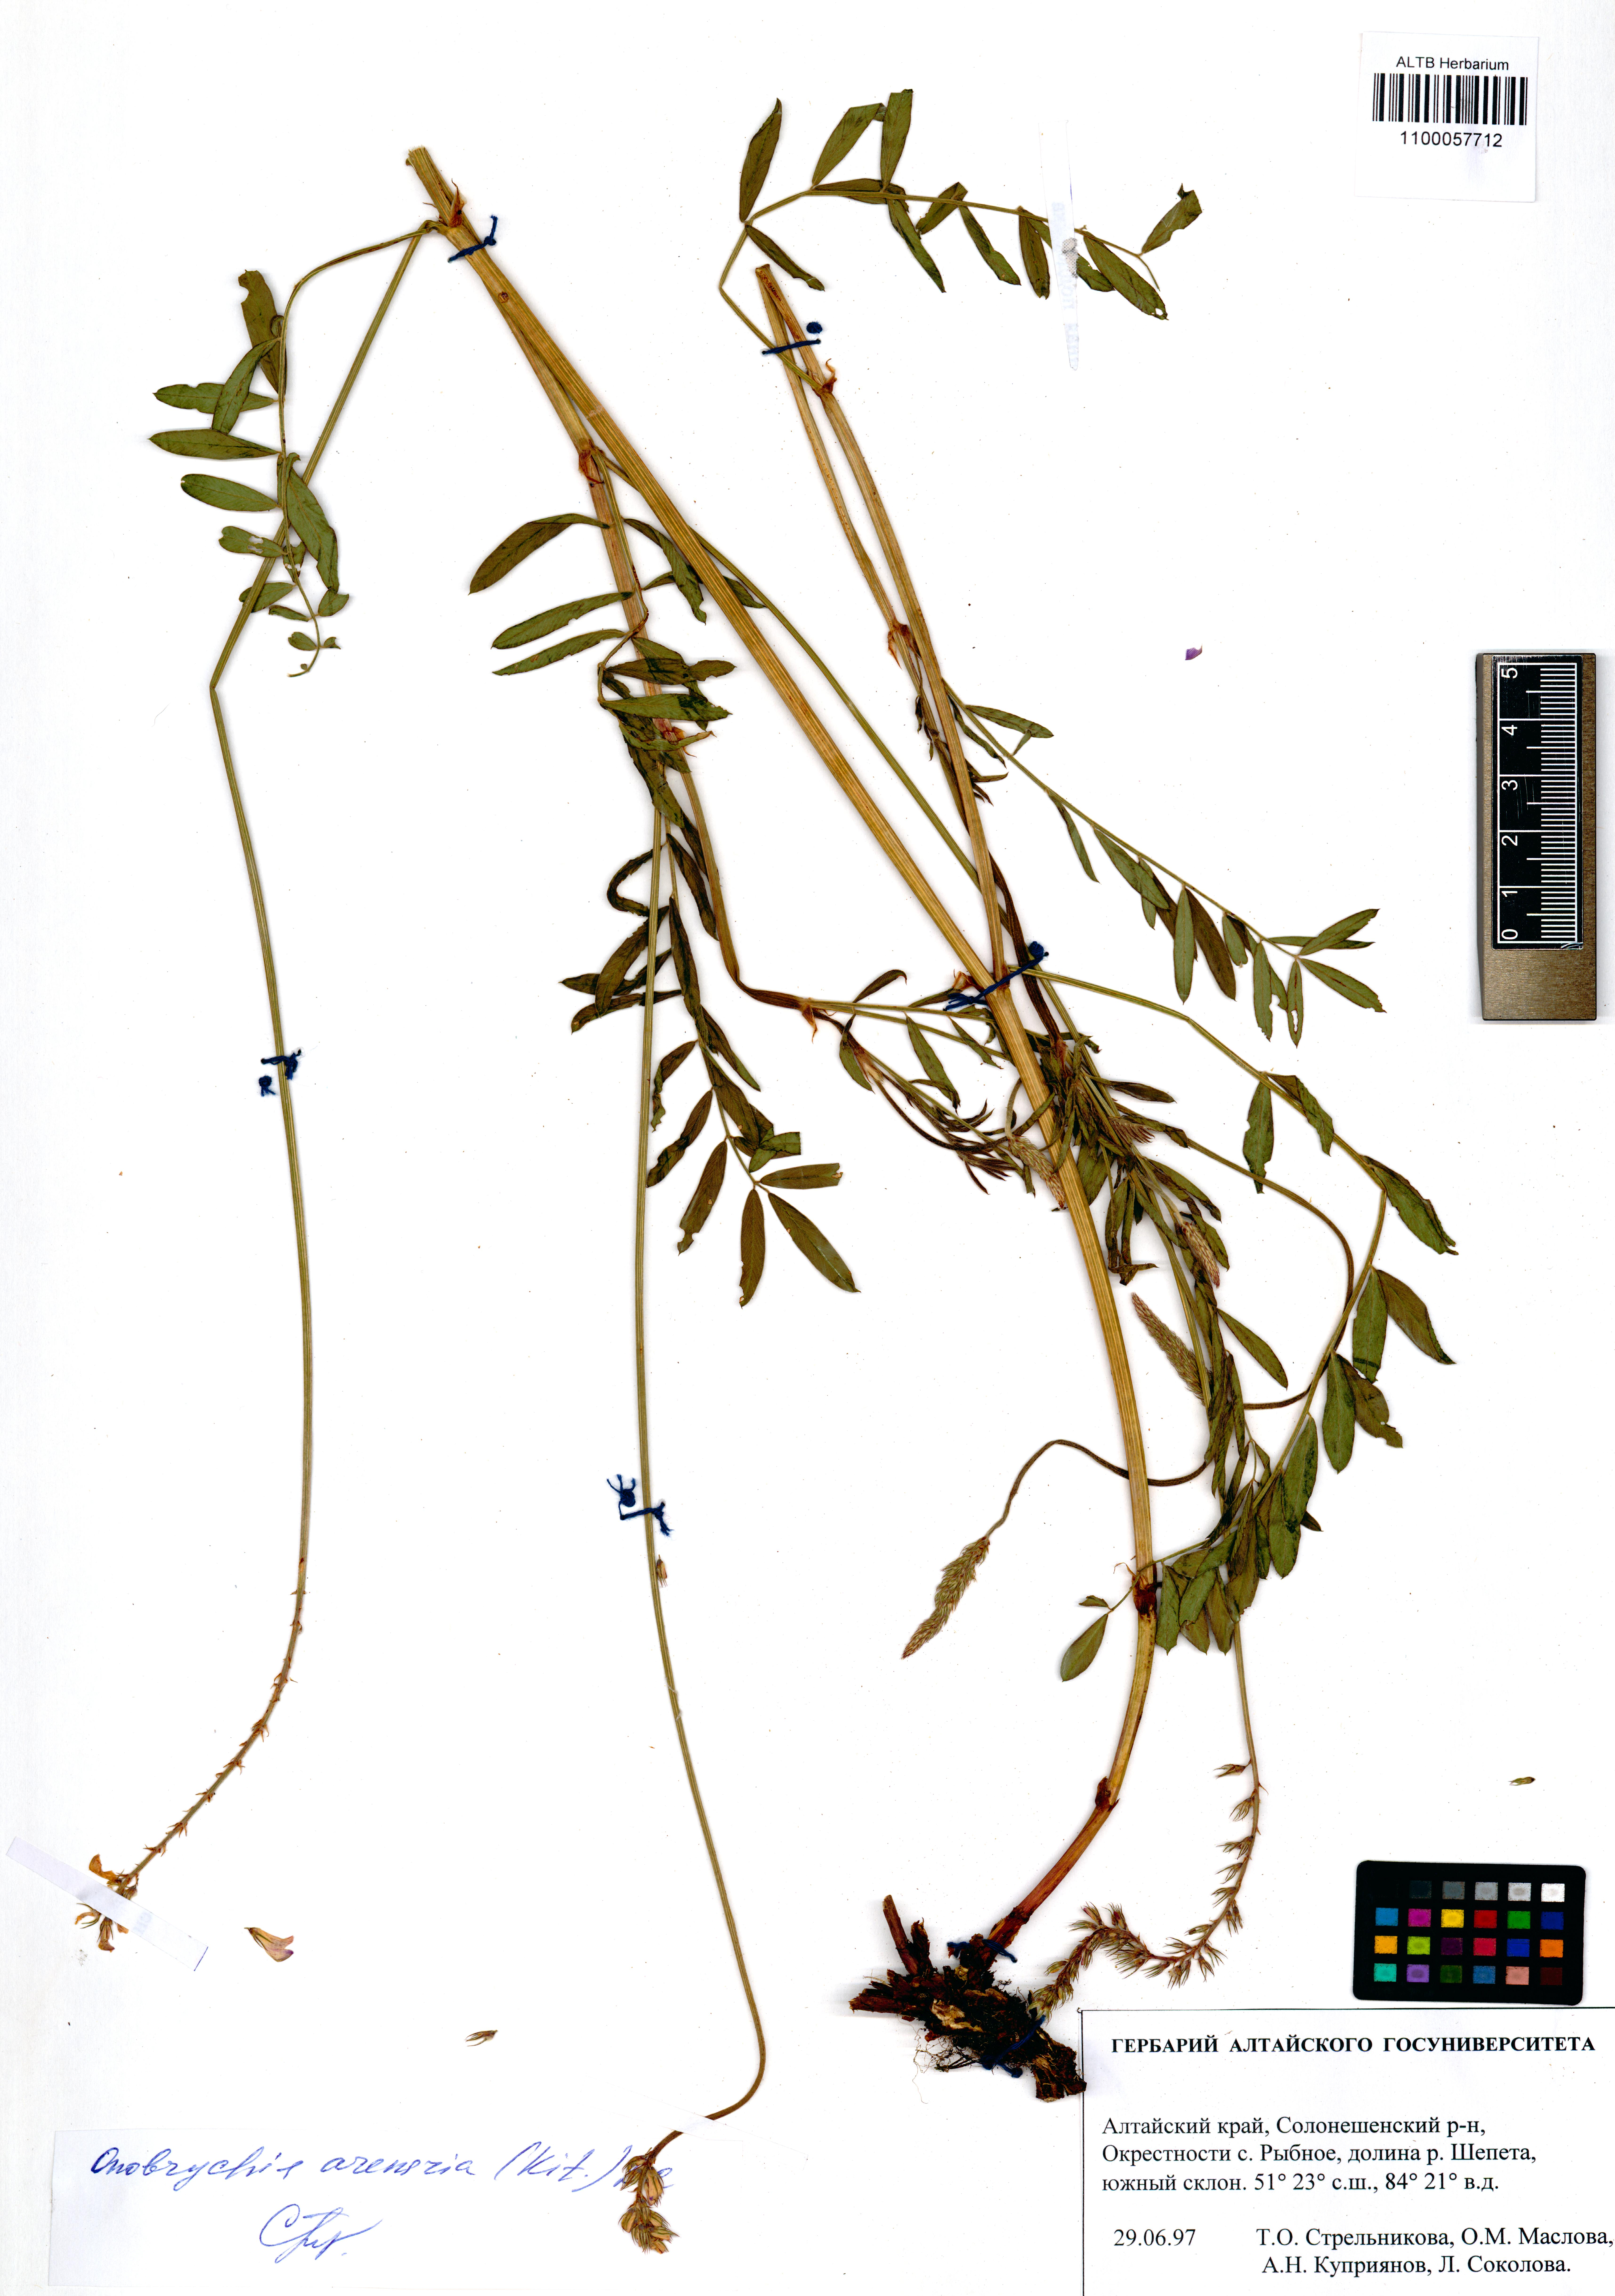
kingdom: Plantae
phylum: Tracheophyta
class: Magnoliopsida
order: Fabales
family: Fabaceae
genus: Onobrychis
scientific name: Onobrychis arenaria
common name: Sand esparcet
